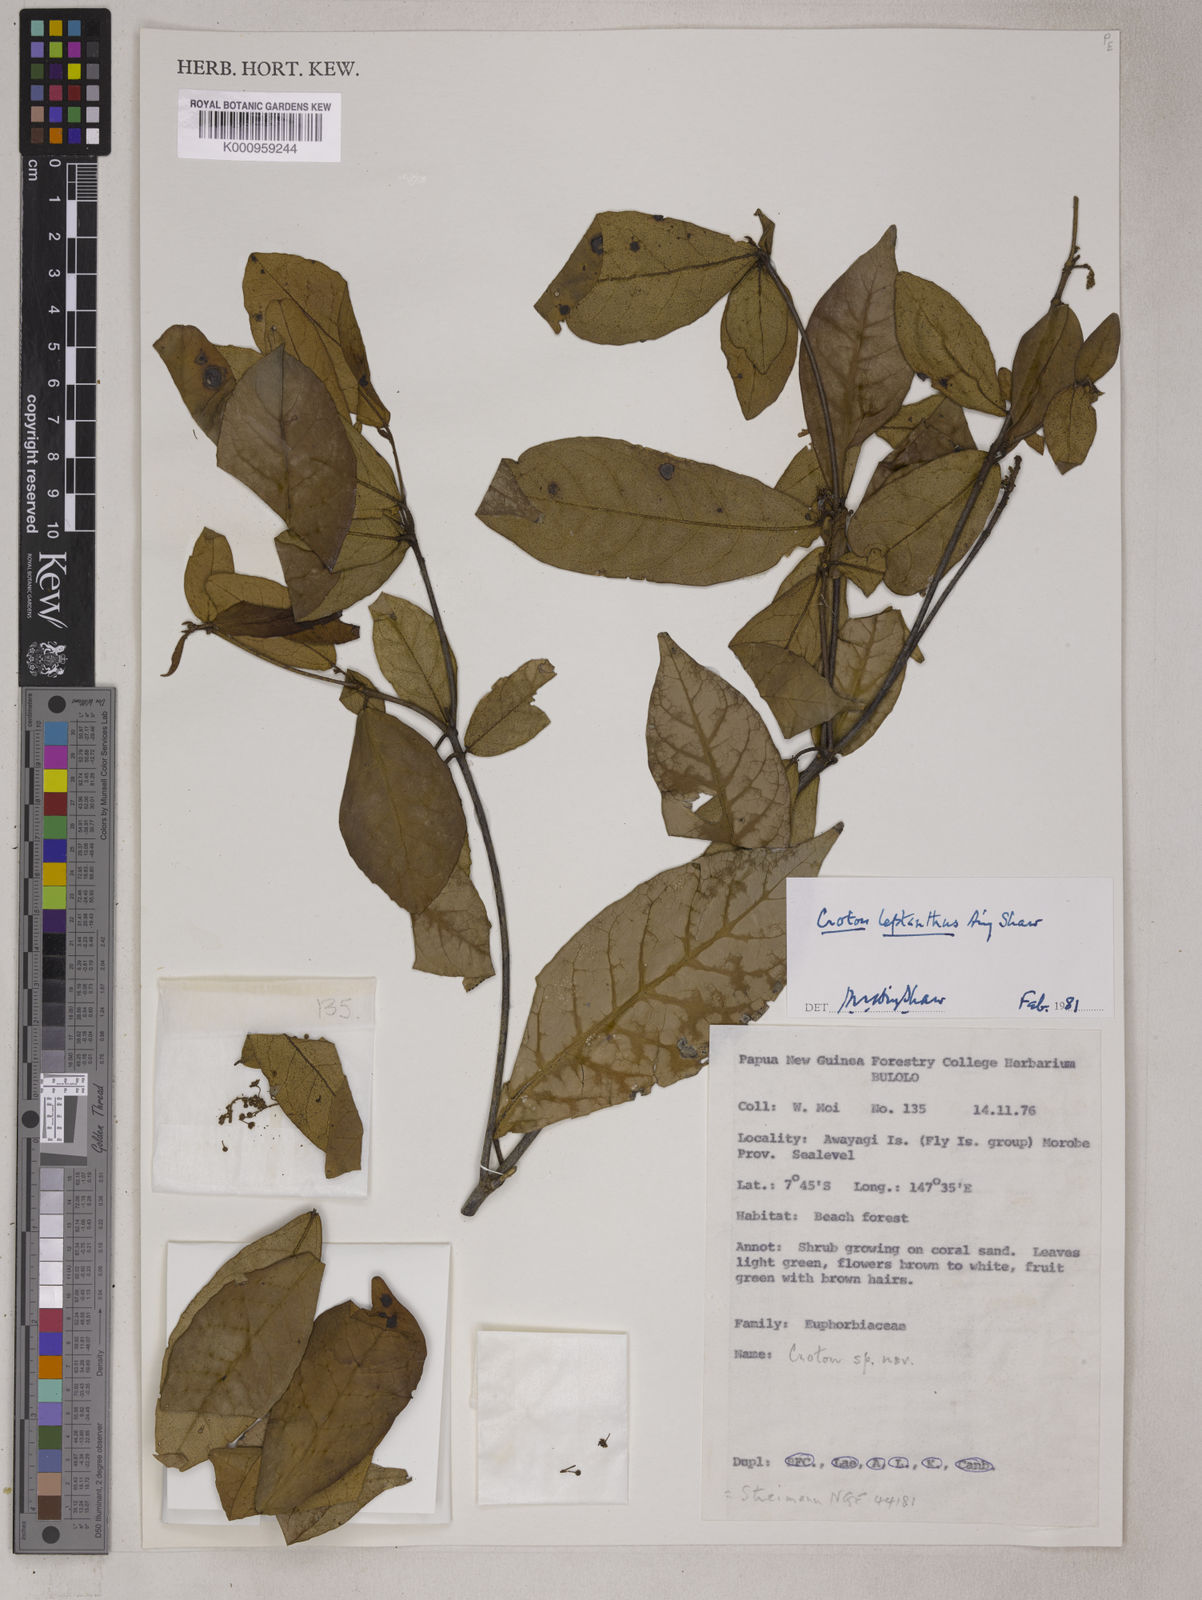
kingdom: Plantae
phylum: Tracheophyta
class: Magnoliopsida
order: Malpighiales
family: Euphorbiaceae
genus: Croton
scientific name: Croton leptanthus
